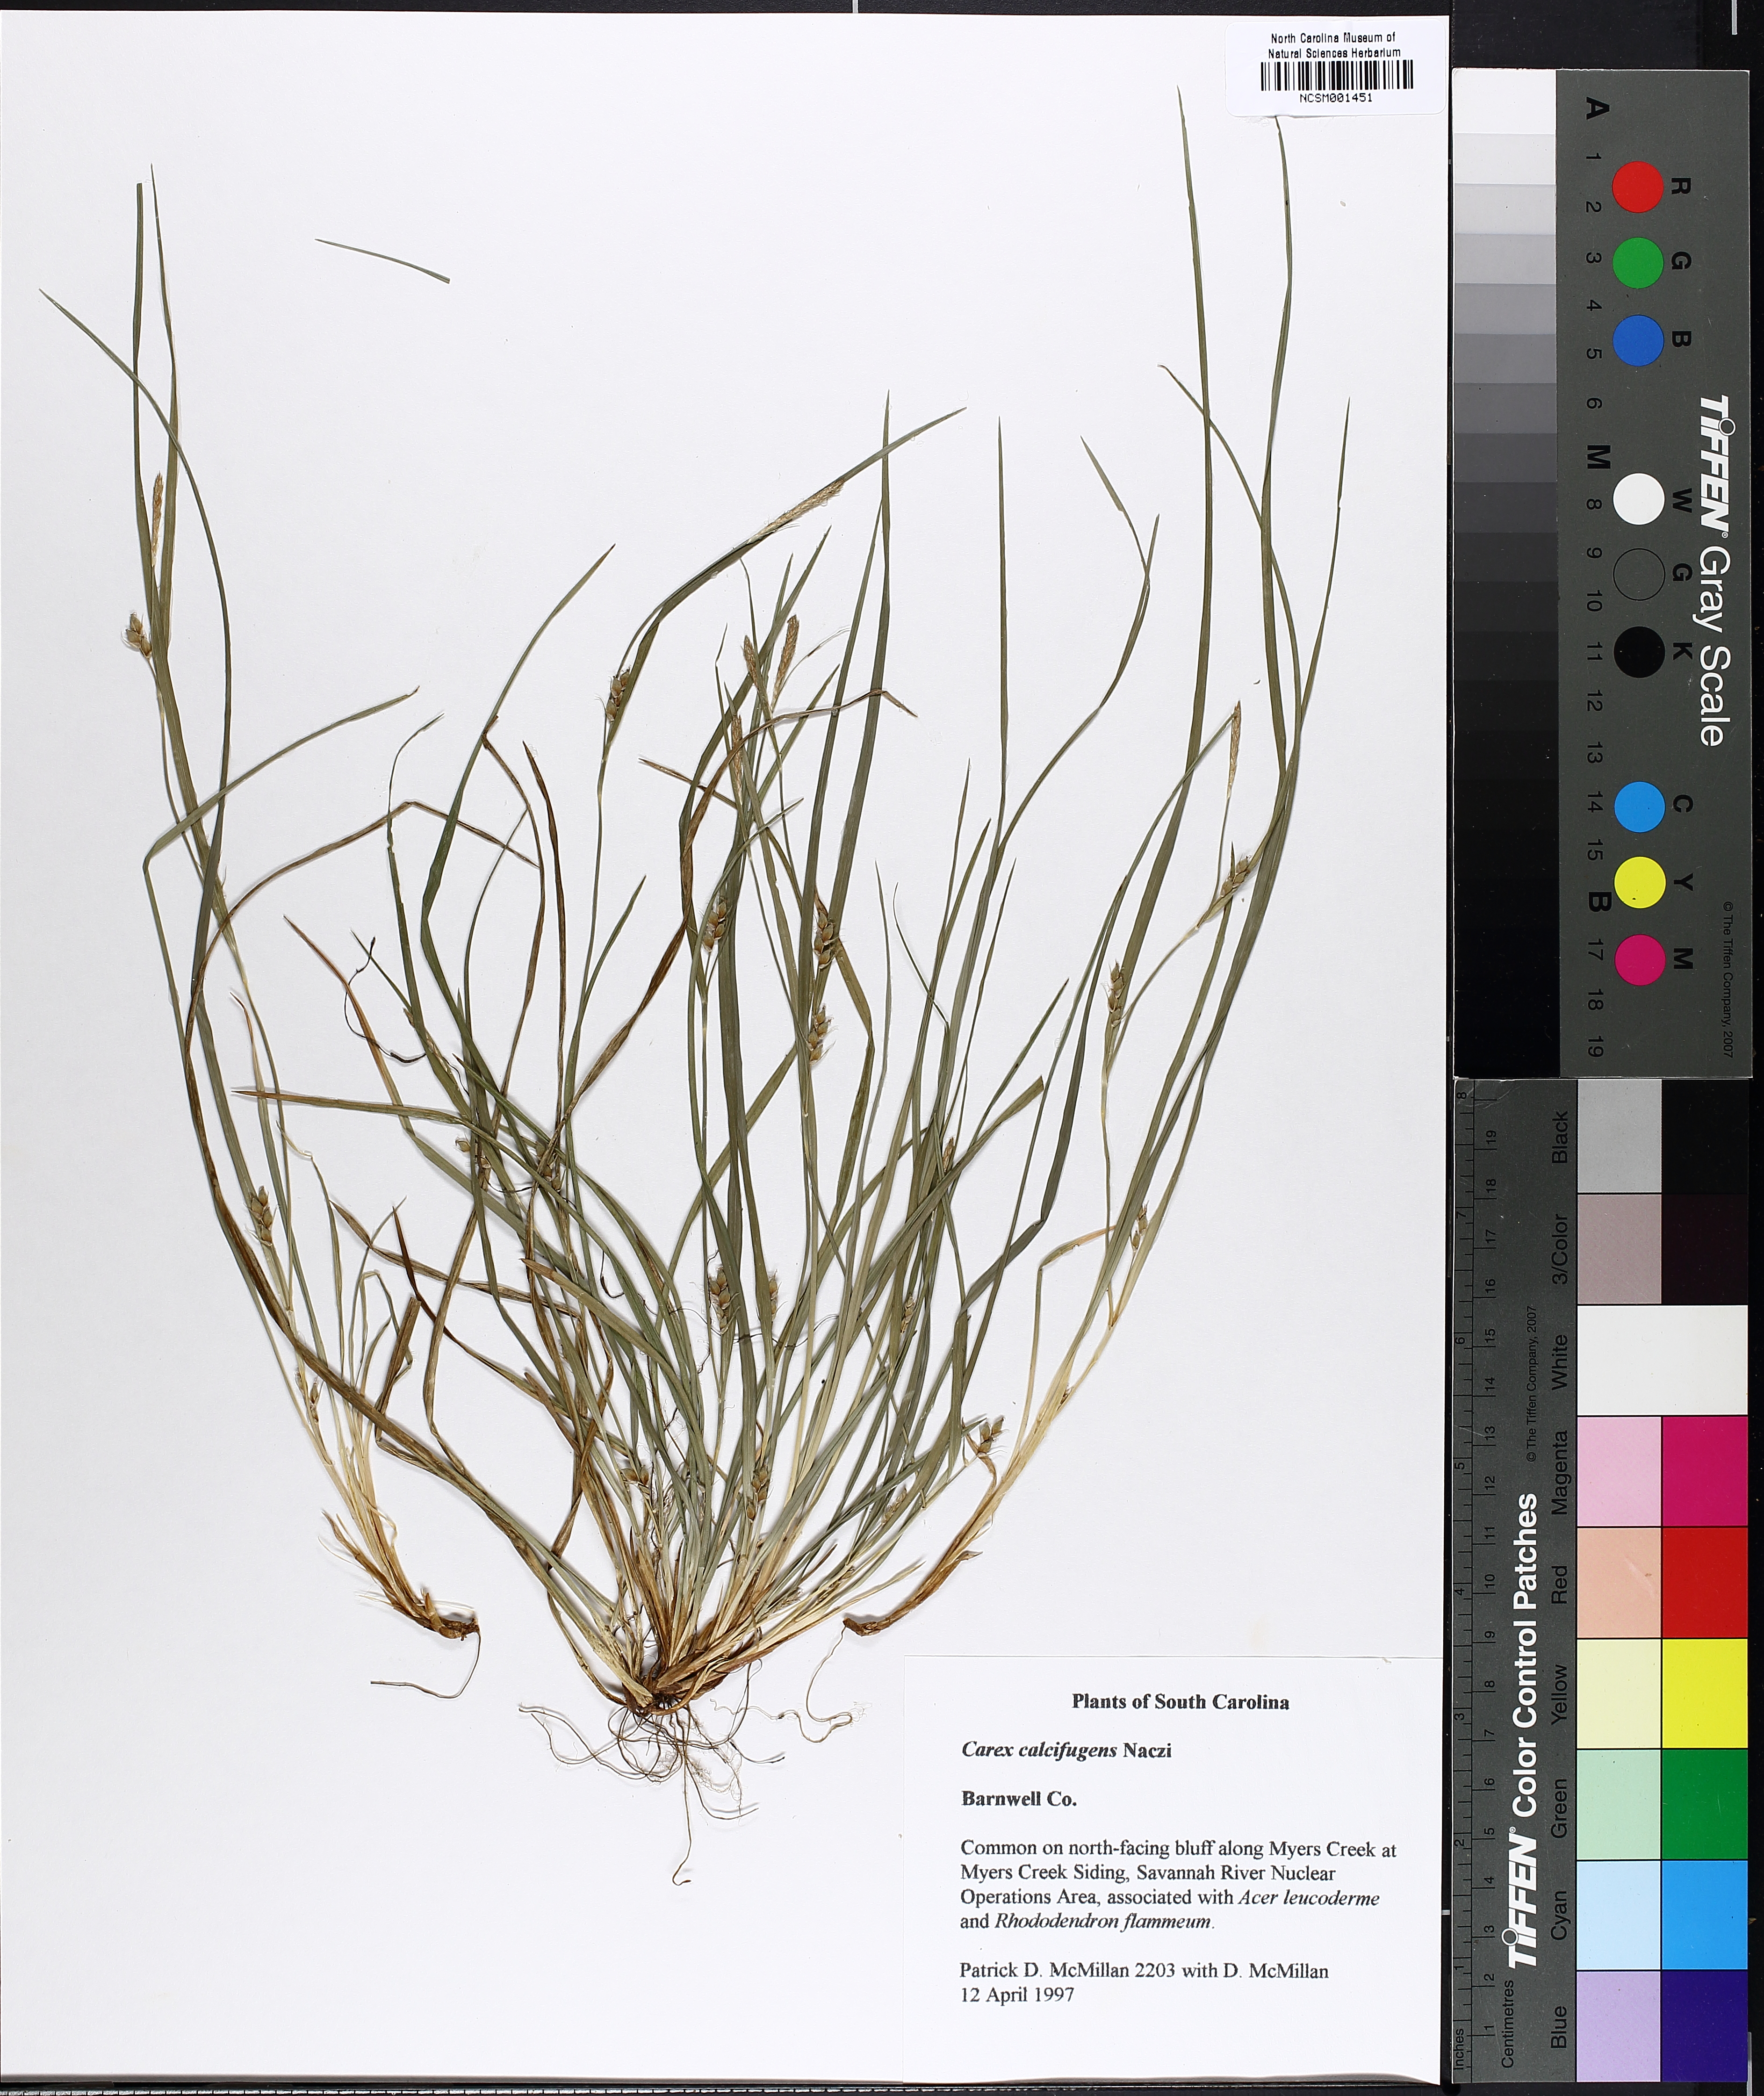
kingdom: Plantae
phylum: Tracheophyta
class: Liliopsida
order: Poales
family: Cyperaceae
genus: Carex
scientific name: Carex calcifugens
